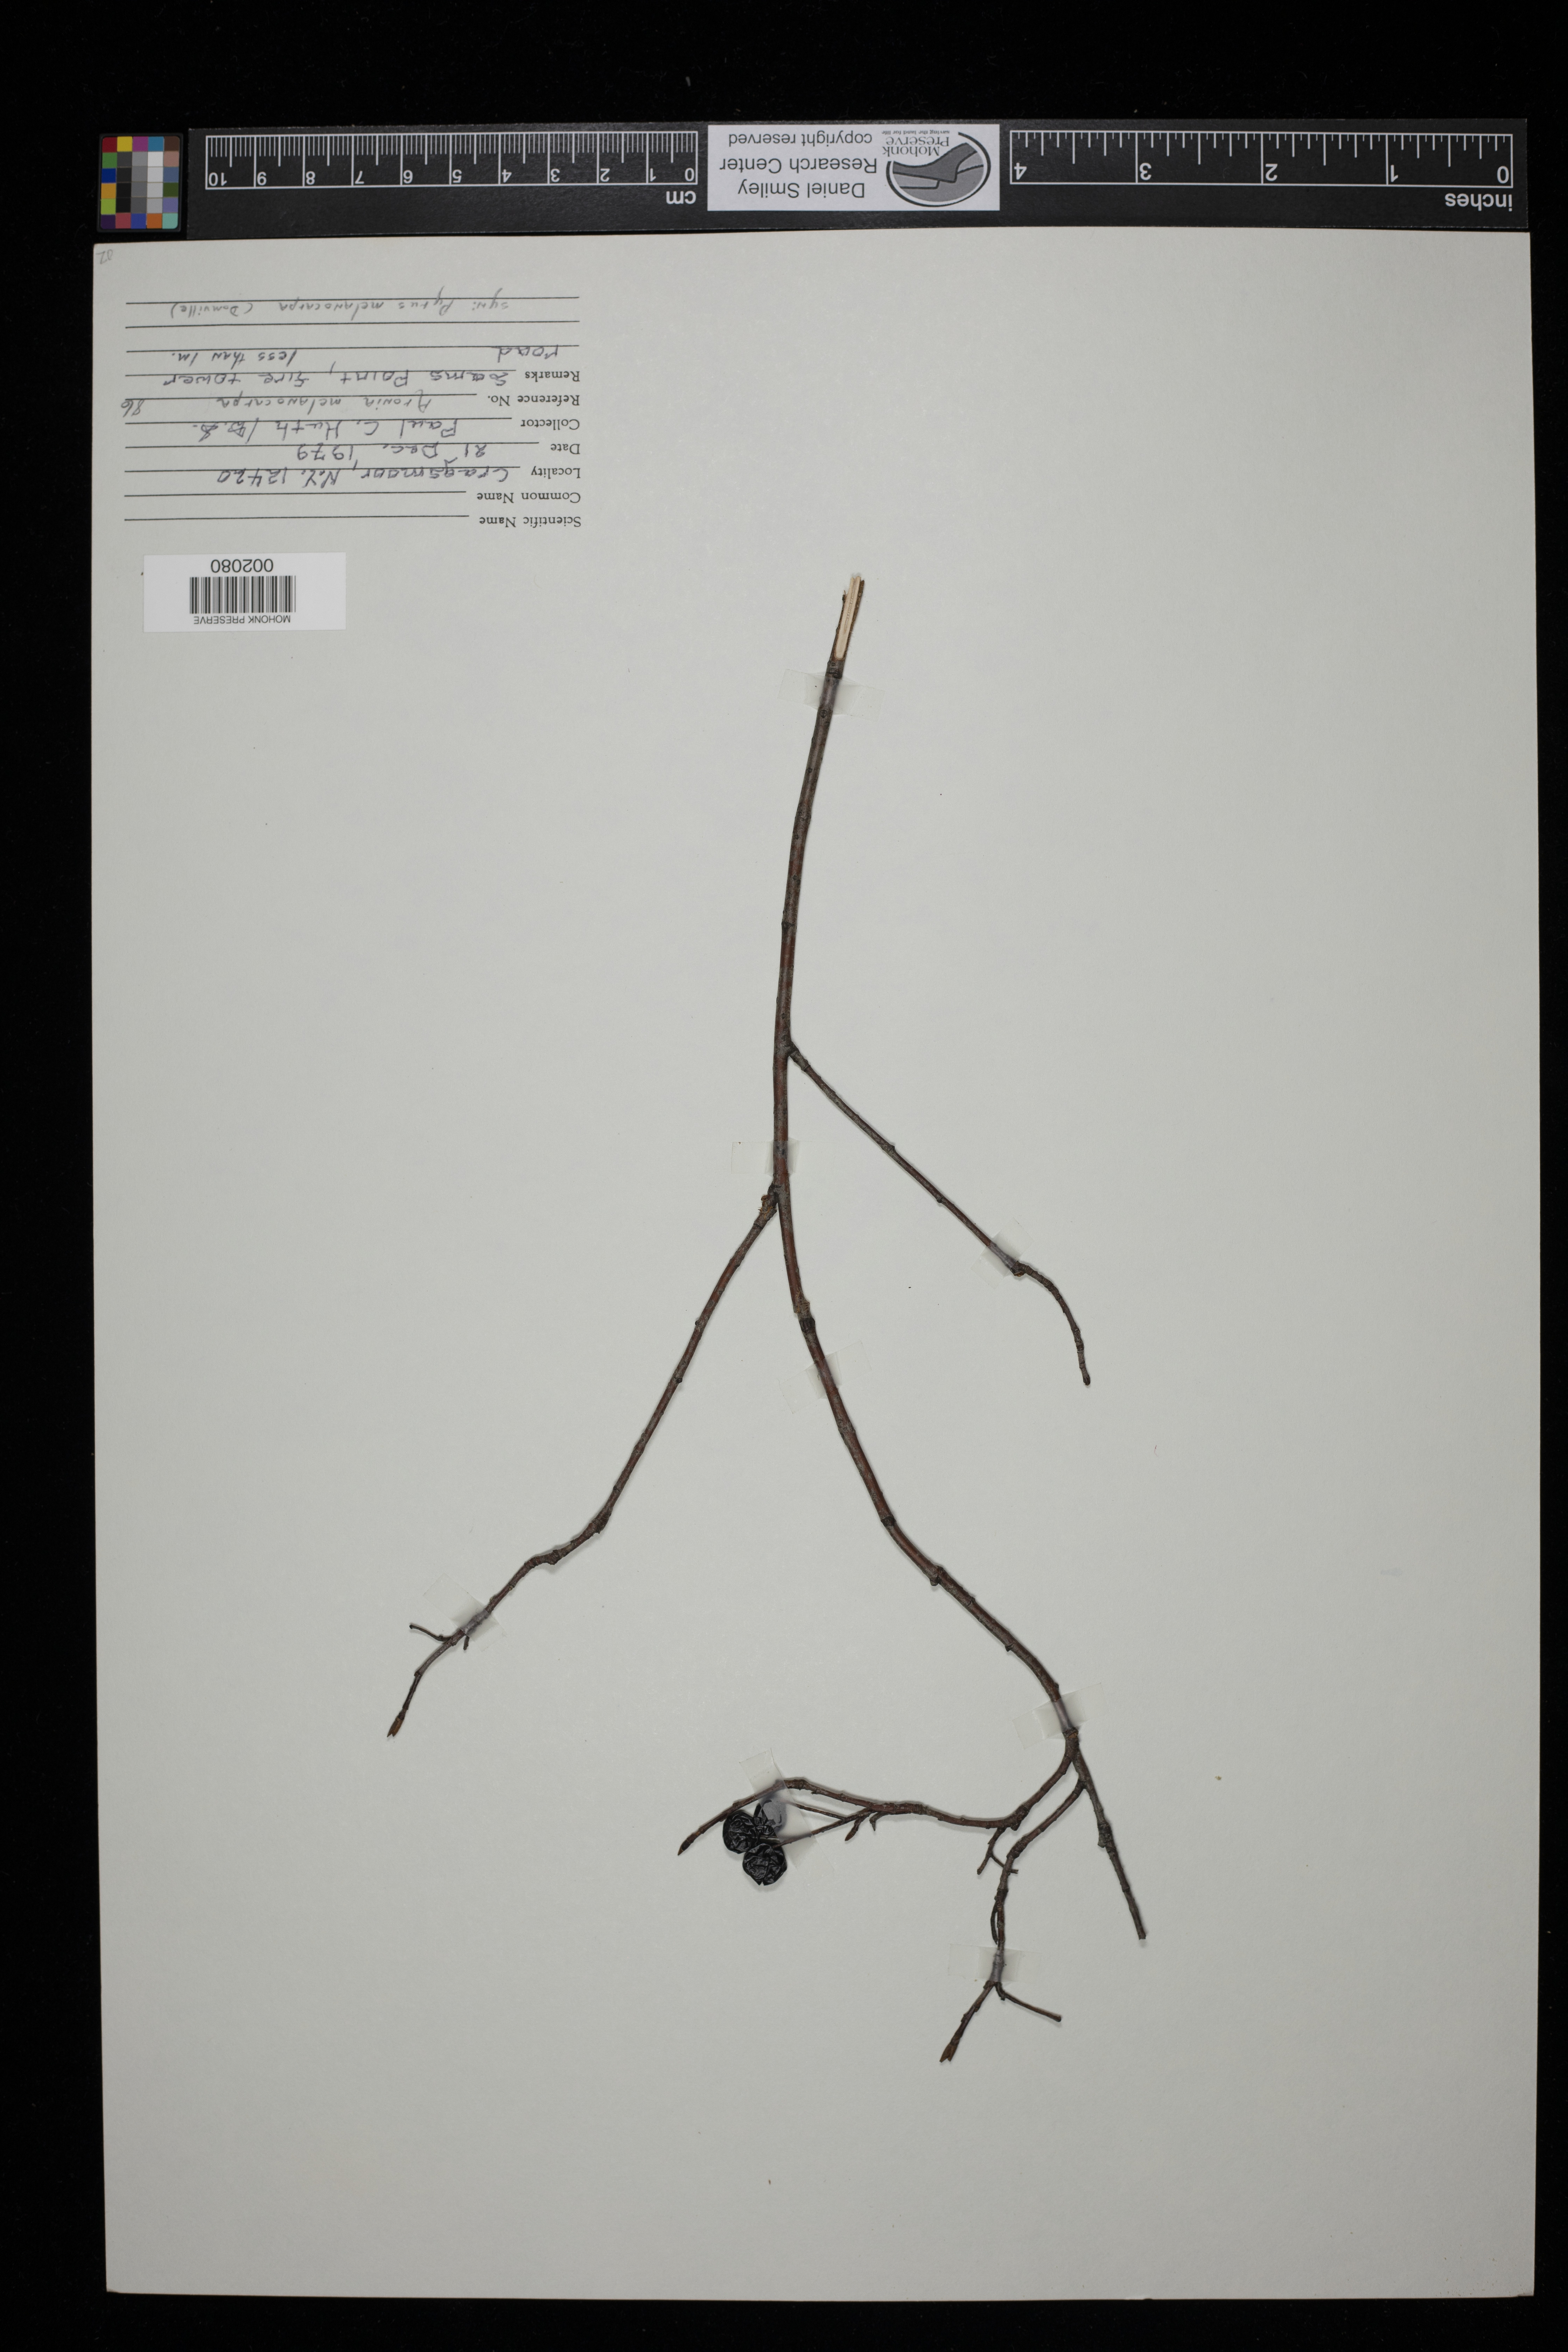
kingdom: Plantae
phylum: Tracheophyta
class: Magnoliopsida
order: Rosales
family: Rosaceae
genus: Aronia
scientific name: Aronia melanocarpa
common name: Black chokeberry
